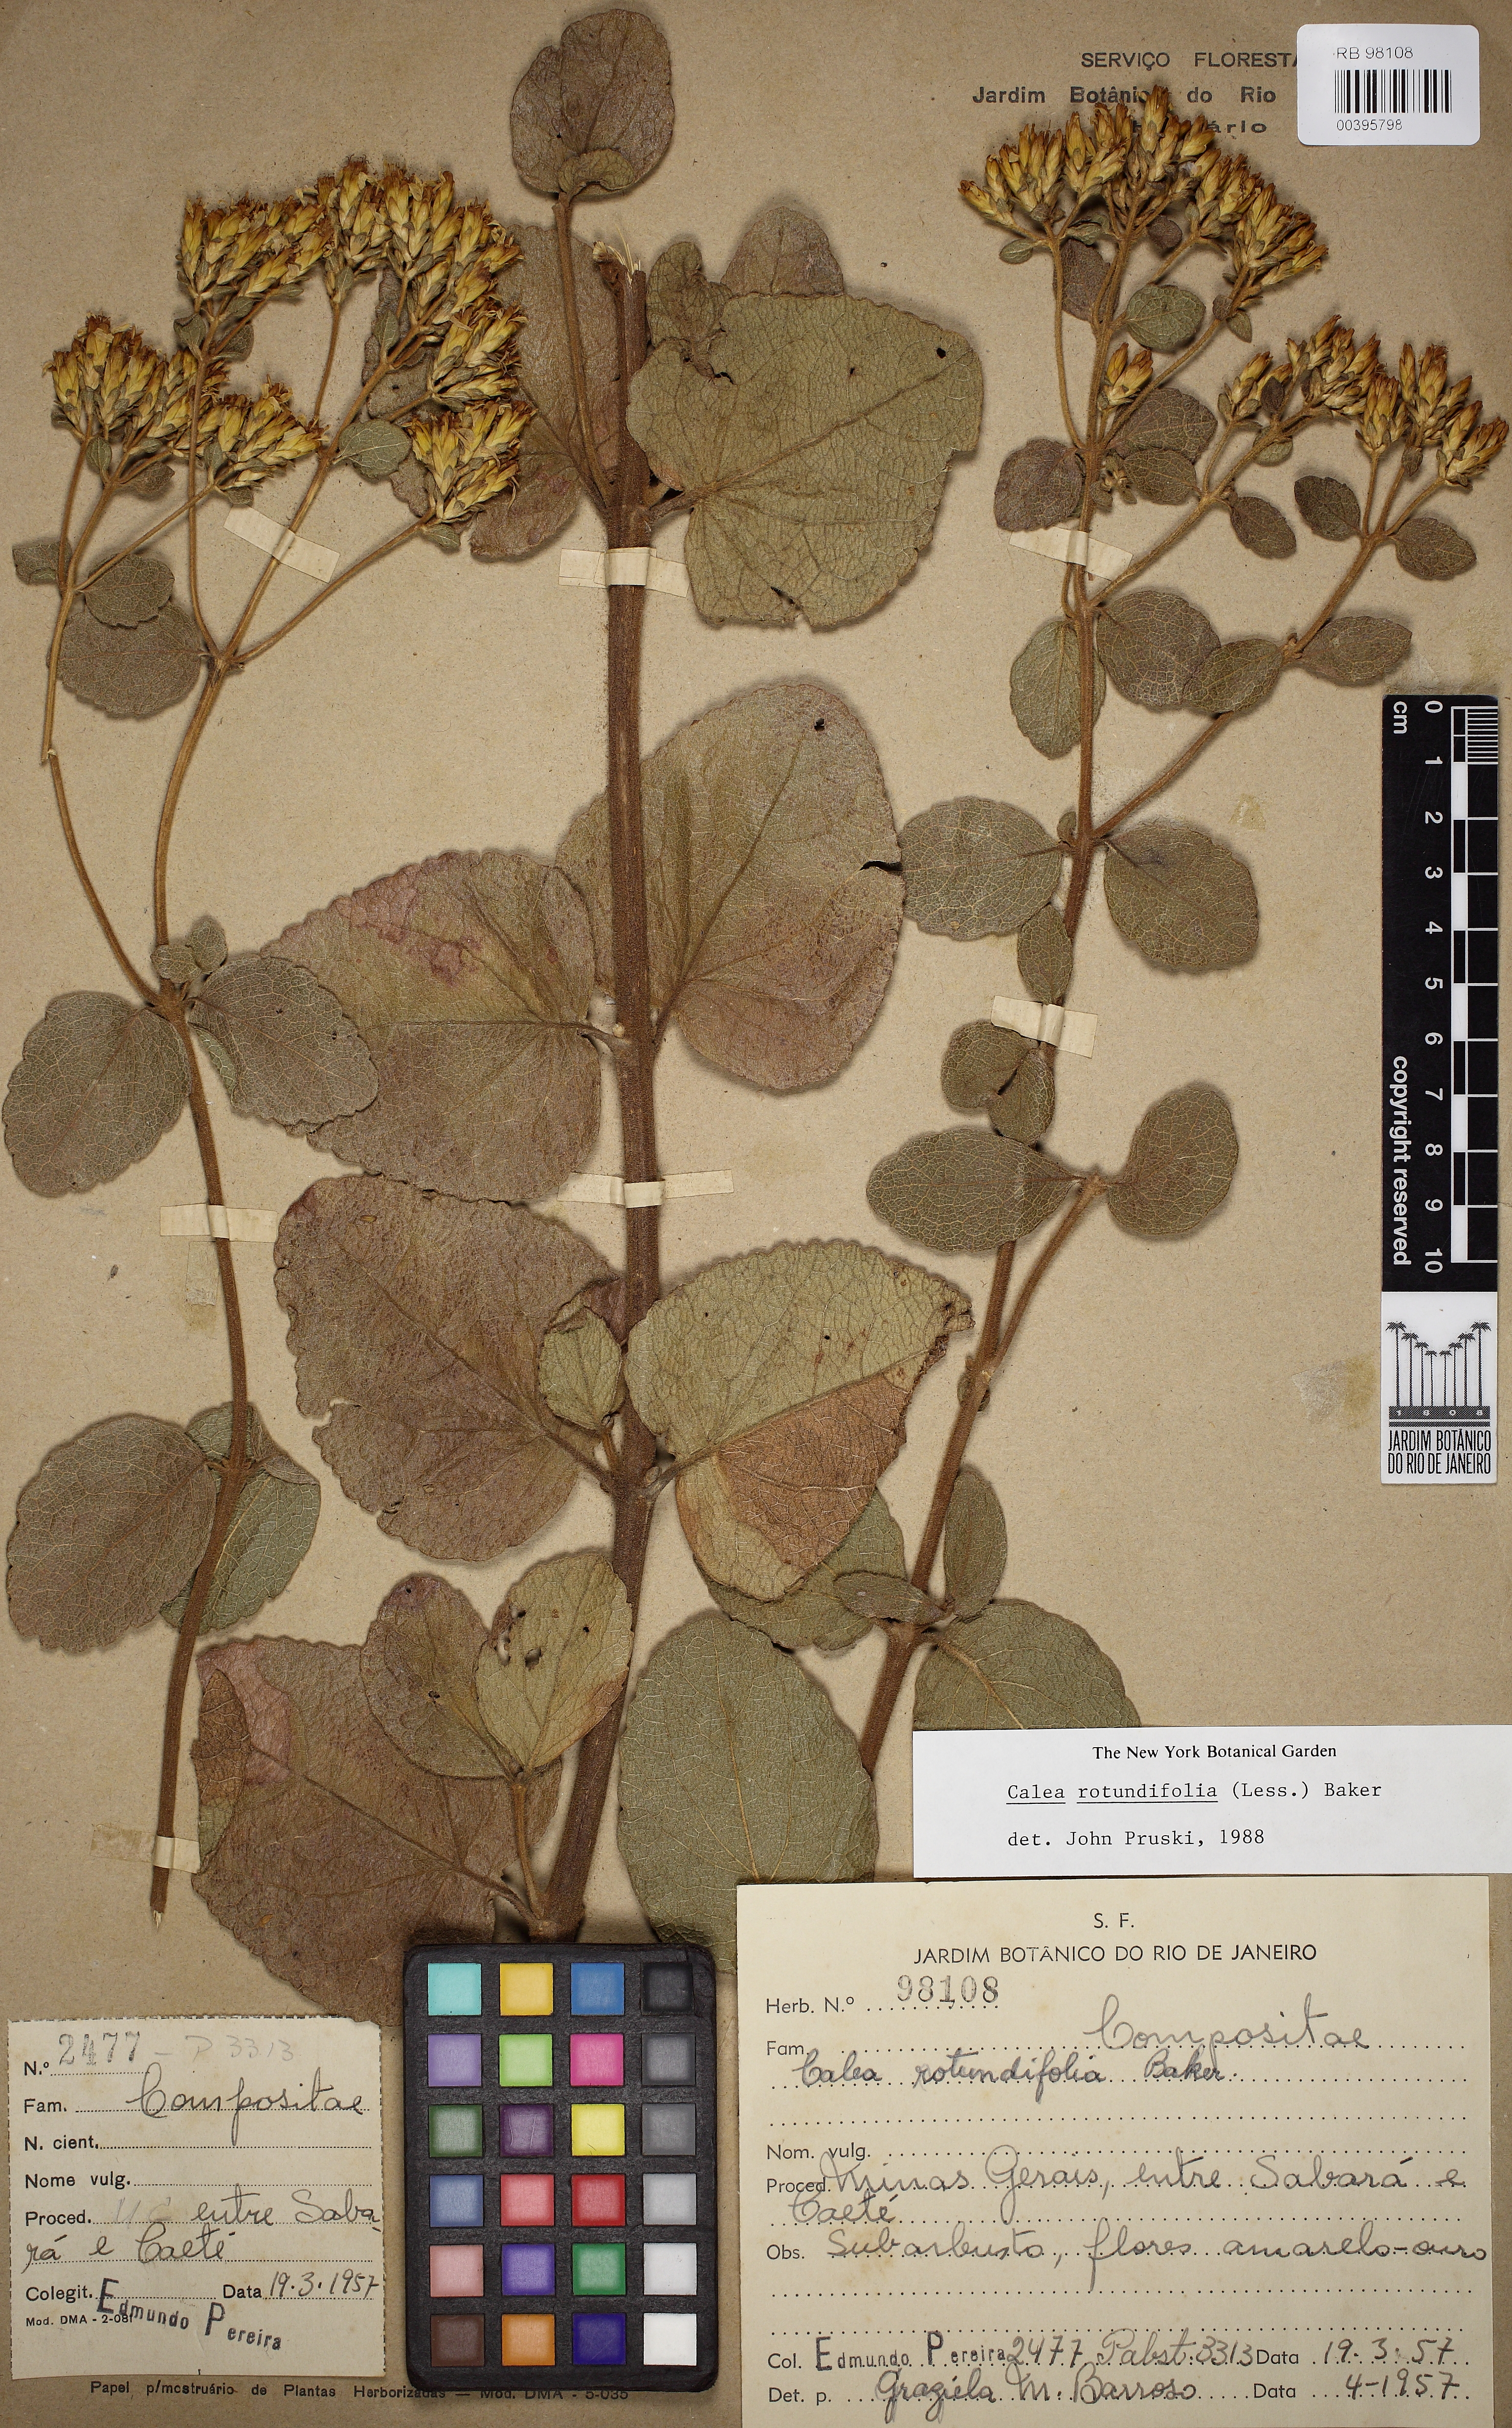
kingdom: Plantae
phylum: Tracheophyta
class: Magnoliopsida
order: Asterales
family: Asteraceae
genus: Calea
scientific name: Calea rotundifolia
